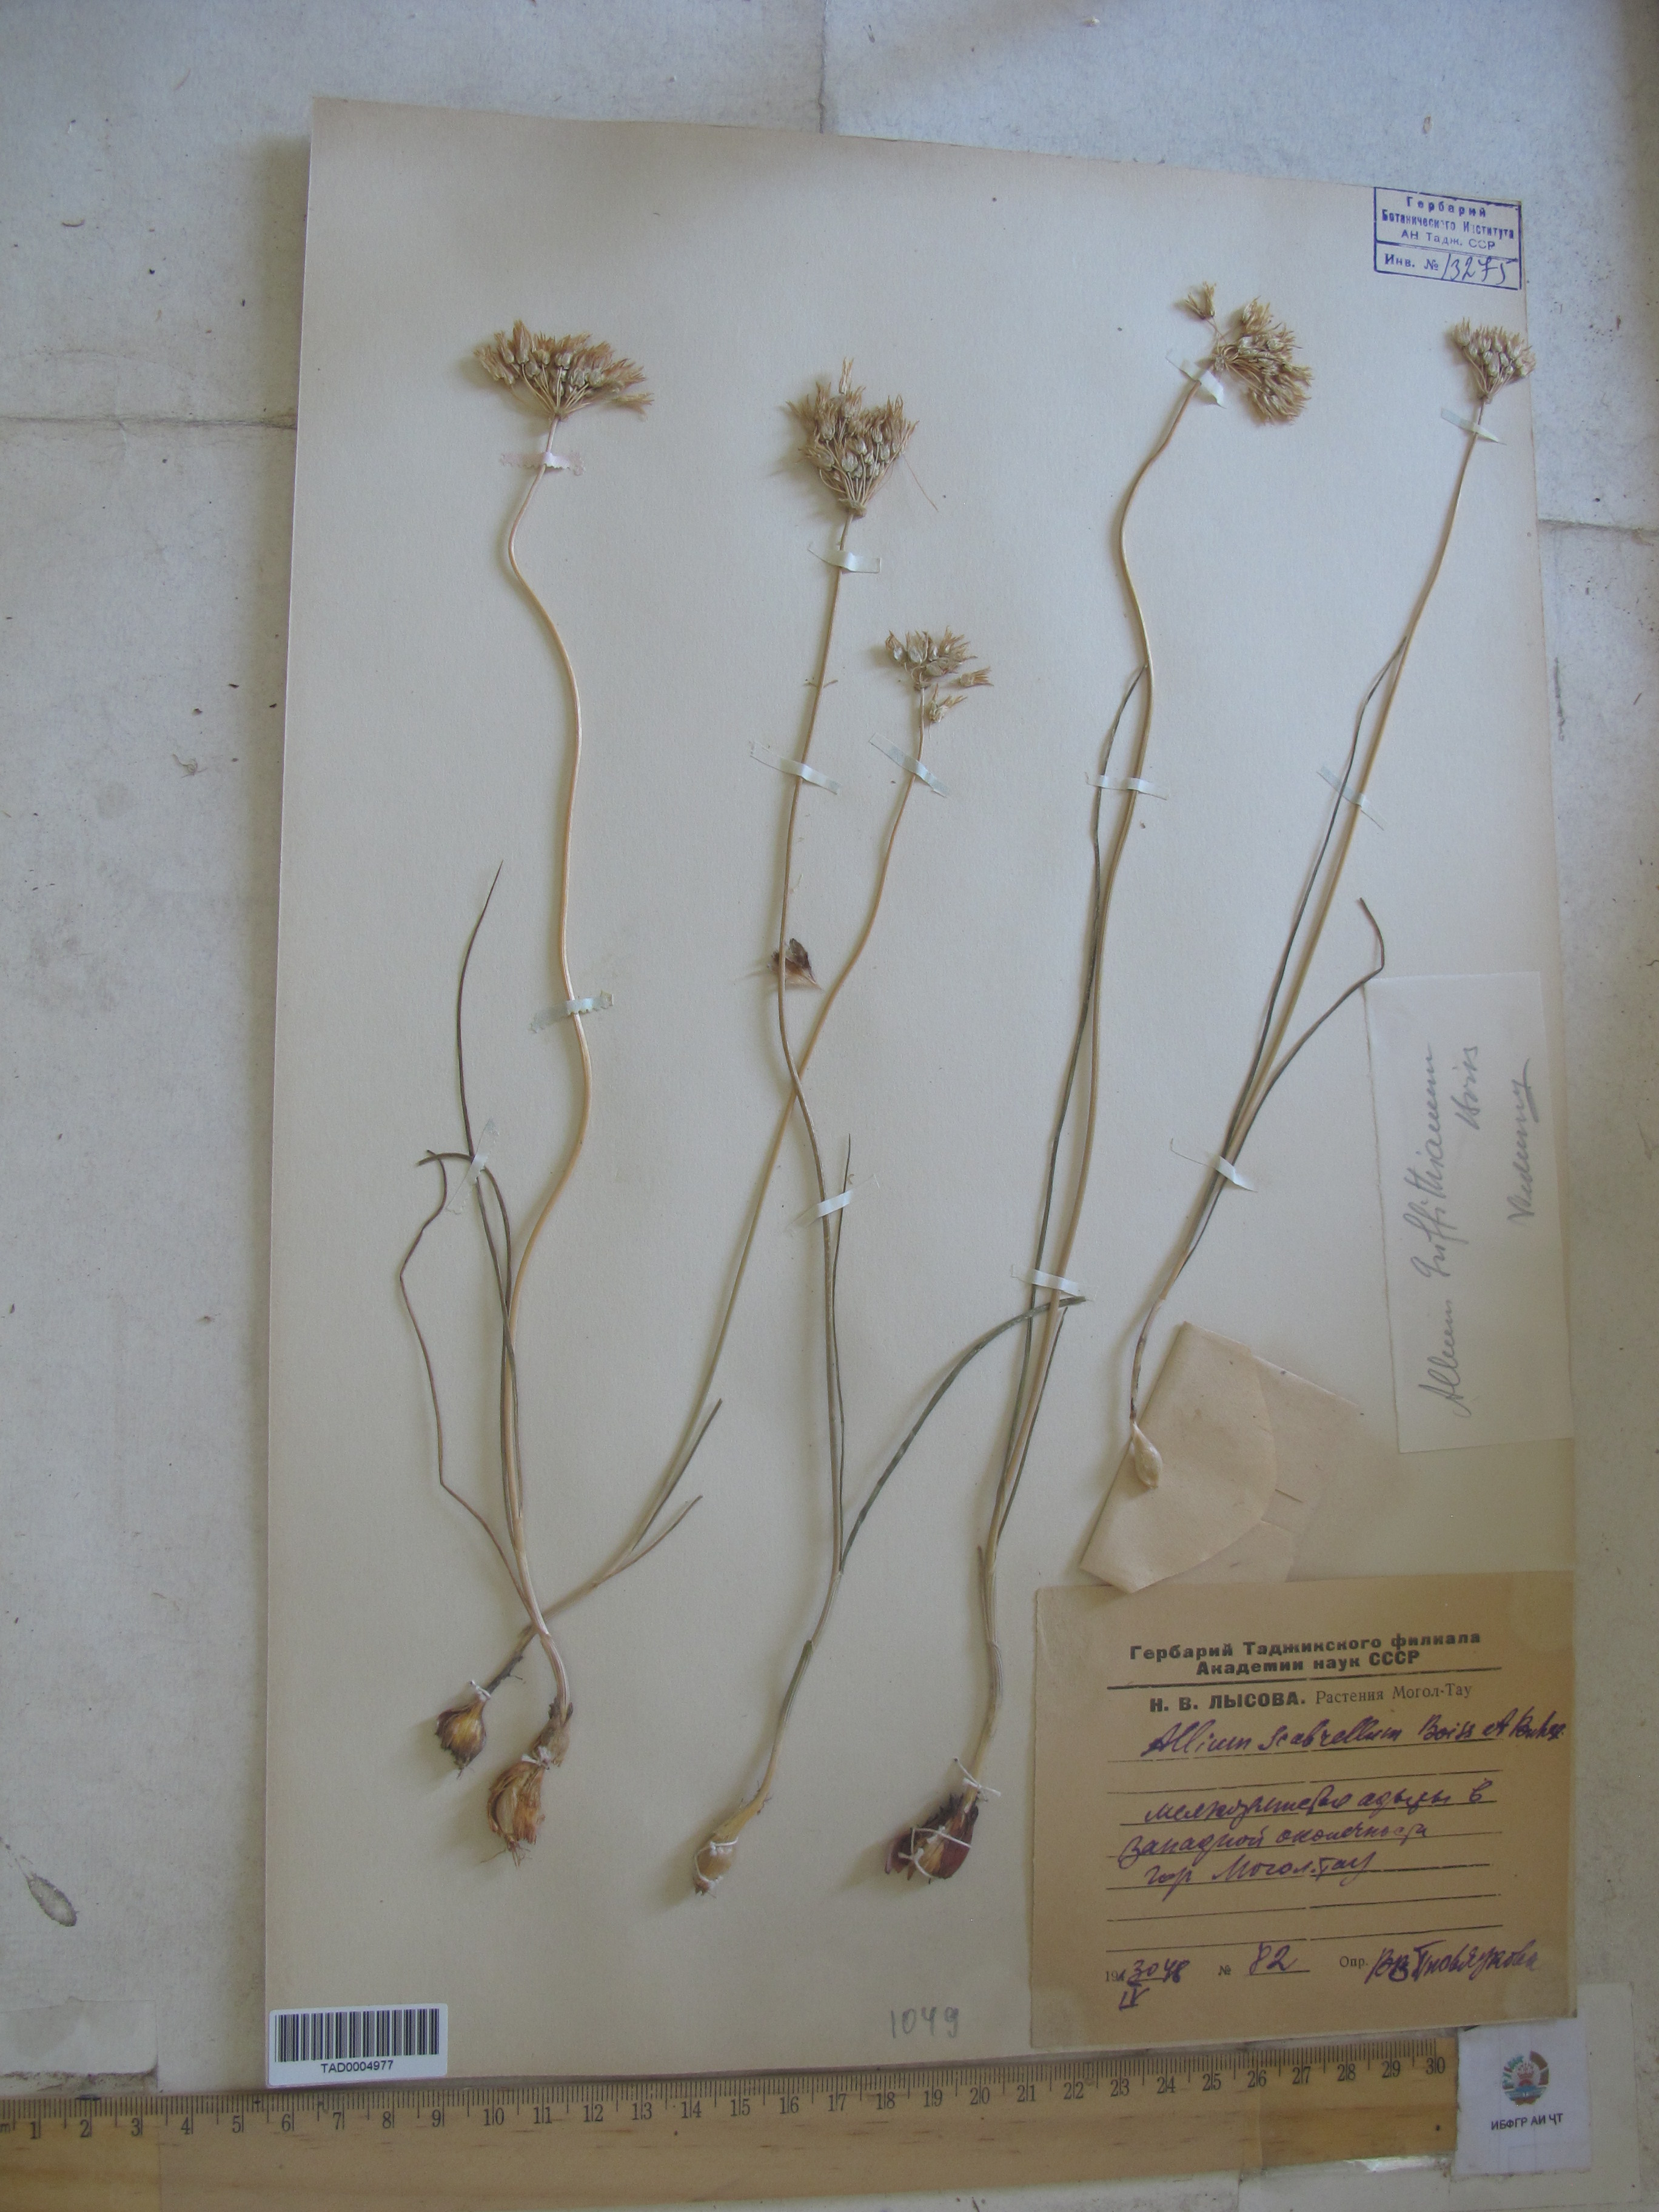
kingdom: Plantae
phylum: Tracheophyta
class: Liliopsida
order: Asparagales
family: Amaryllidaceae
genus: Allium
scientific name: Allium griffithianum
